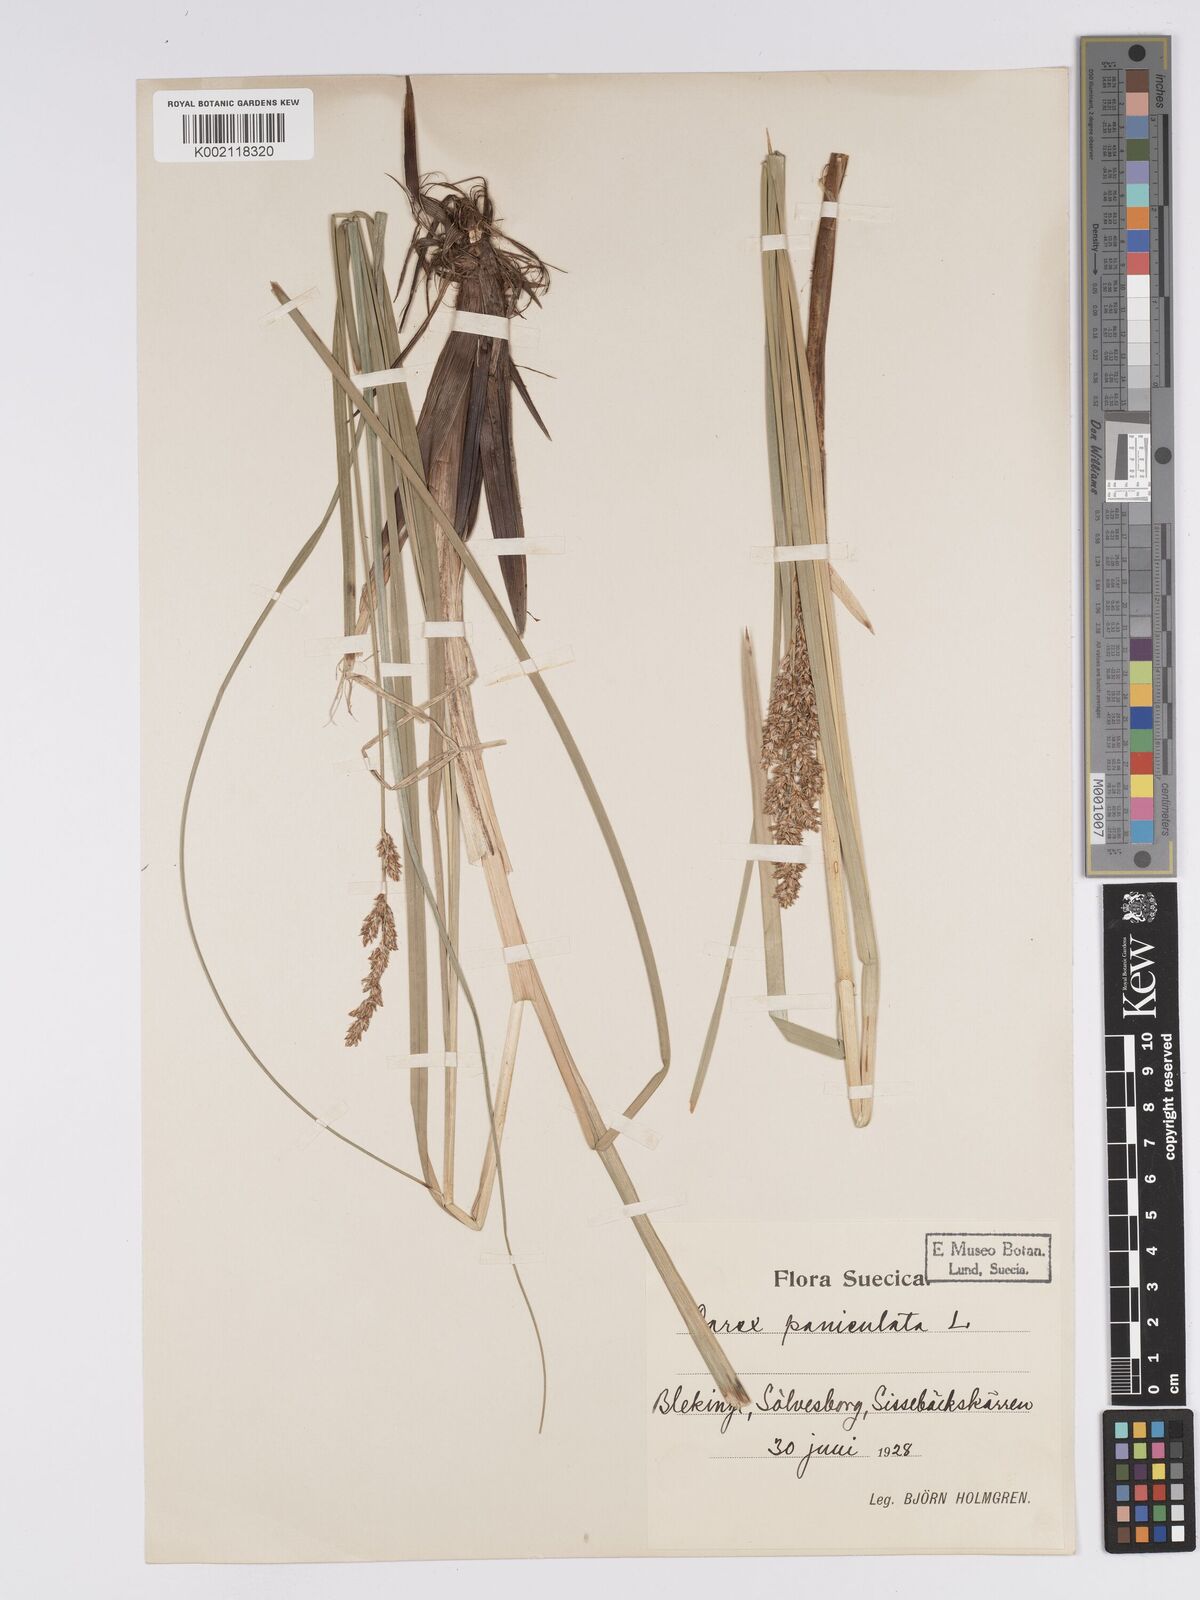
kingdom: Plantae
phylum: Tracheophyta
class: Liliopsida
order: Poales
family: Cyperaceae
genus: Carex
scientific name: Carex paniculata
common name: Greater tussock-sedge
